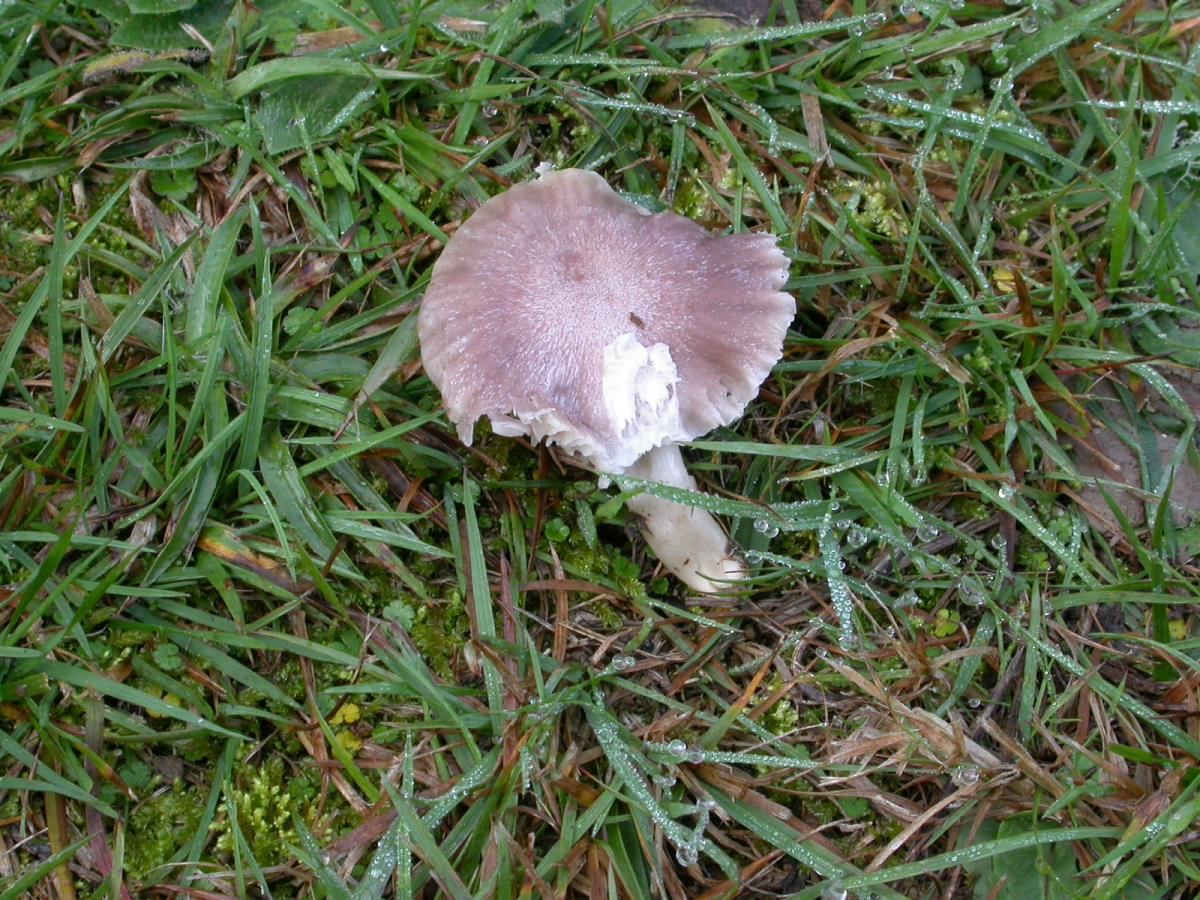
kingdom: Fungi
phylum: Basidiomycota
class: Agaricomycetes
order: Agaricales
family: Hygrophoraceae
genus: Camarophyllus
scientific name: Camarophyllus canus
